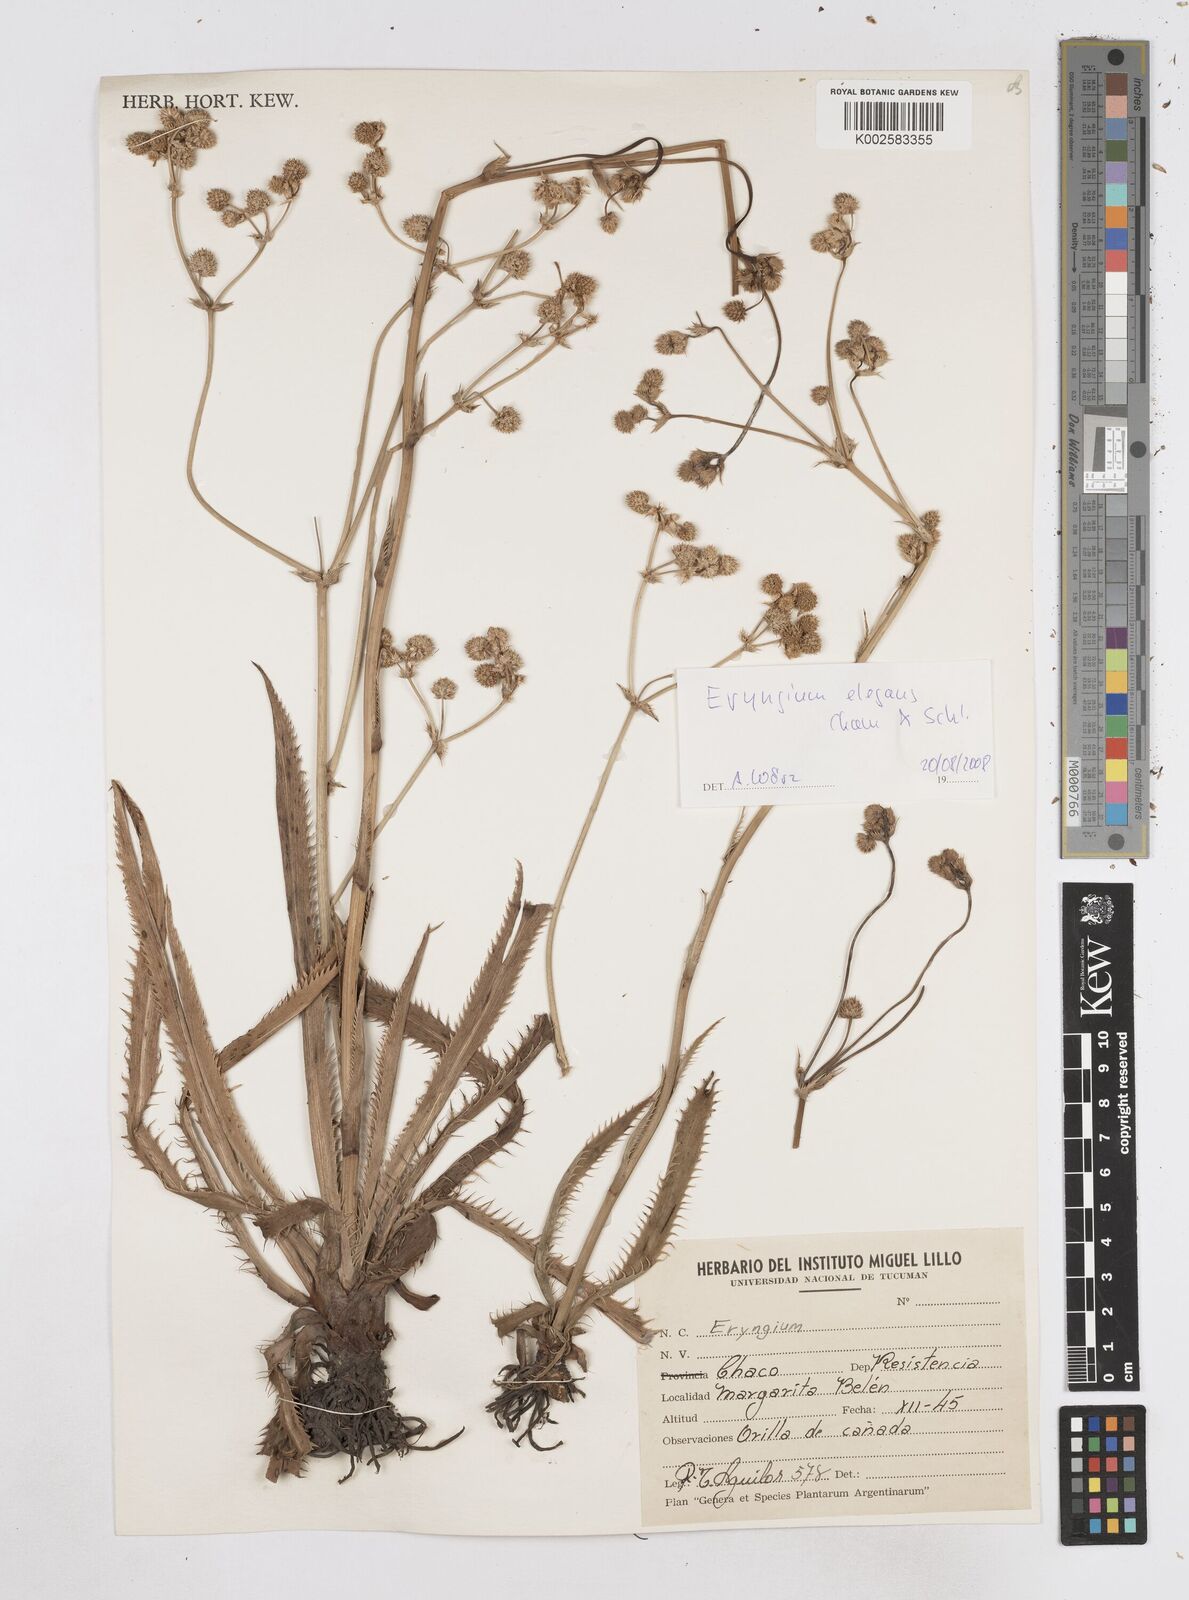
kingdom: Plantae
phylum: Tracheophyta
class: Magnoliopsida
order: Apiales
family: Apiaceae
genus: Eryngium
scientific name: Eryngium elegans
